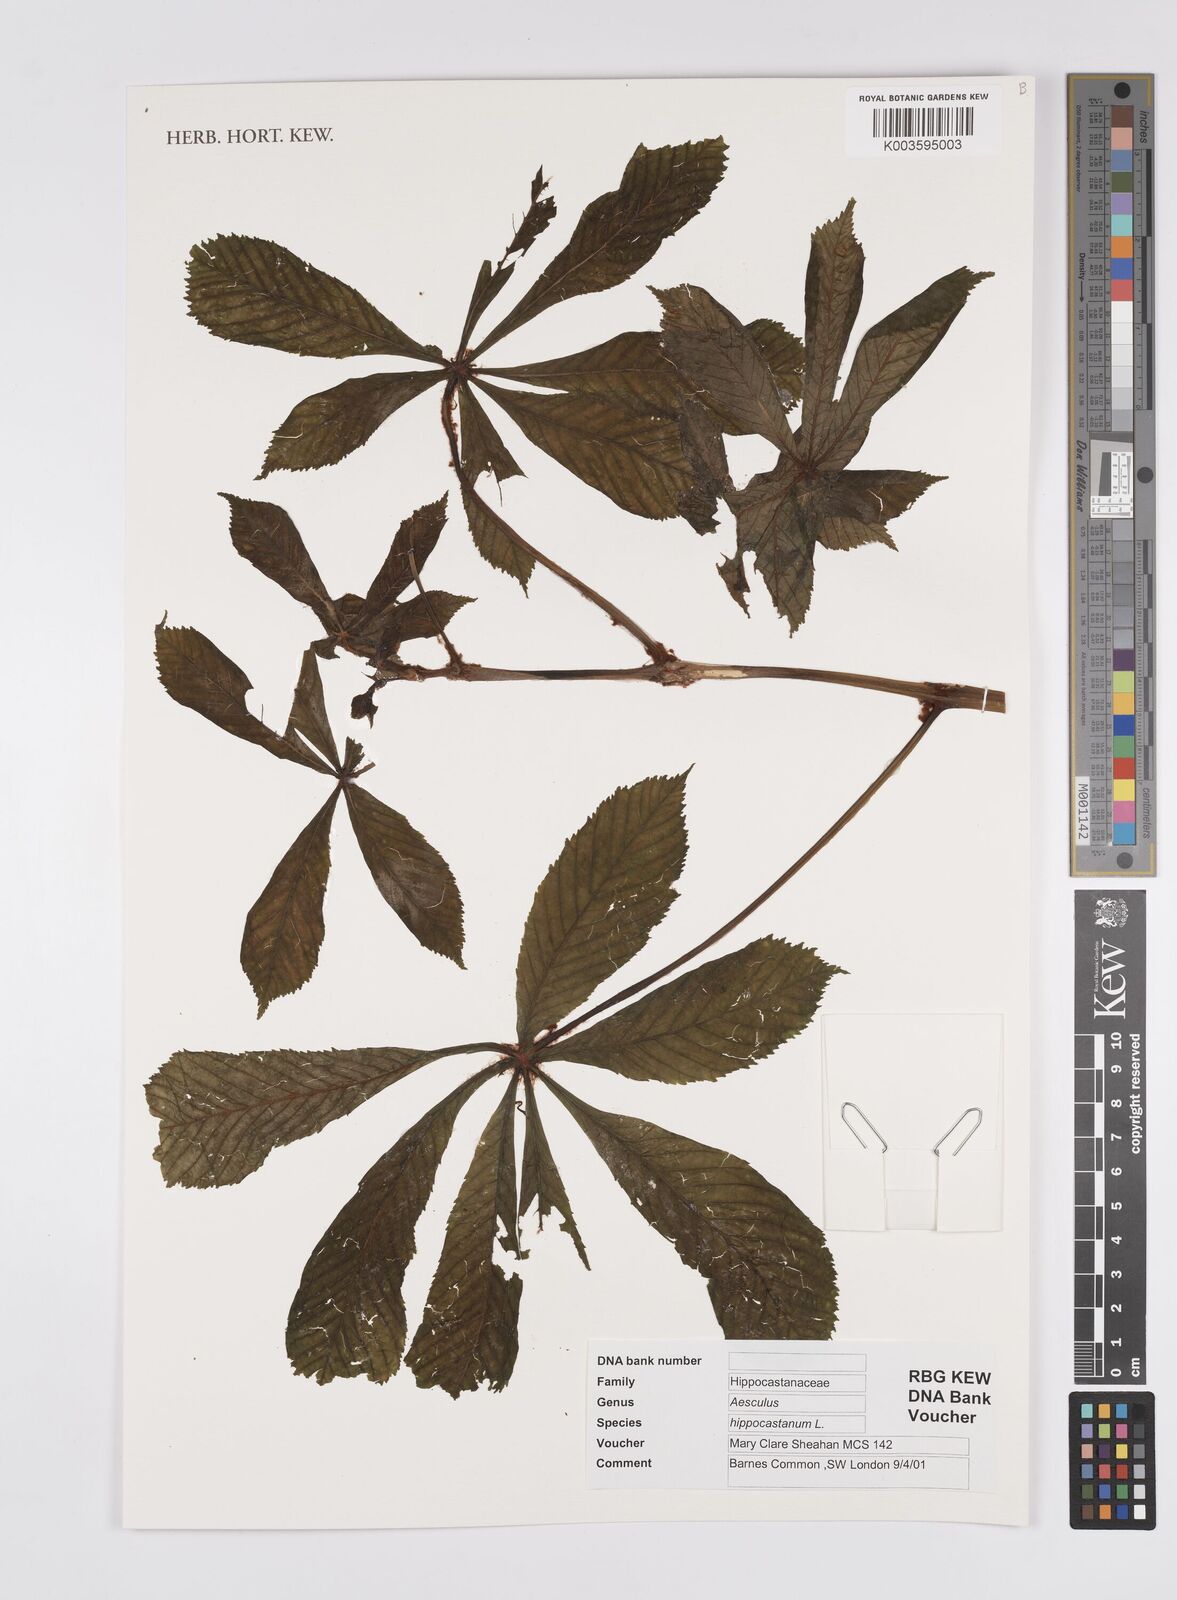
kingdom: Plantae
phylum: Tracheophyta
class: Magnoliopsida
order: Sapindales
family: Sapindaceae
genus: Aesculus
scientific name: Aesculus hippocastanum
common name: Horse-chestnut
